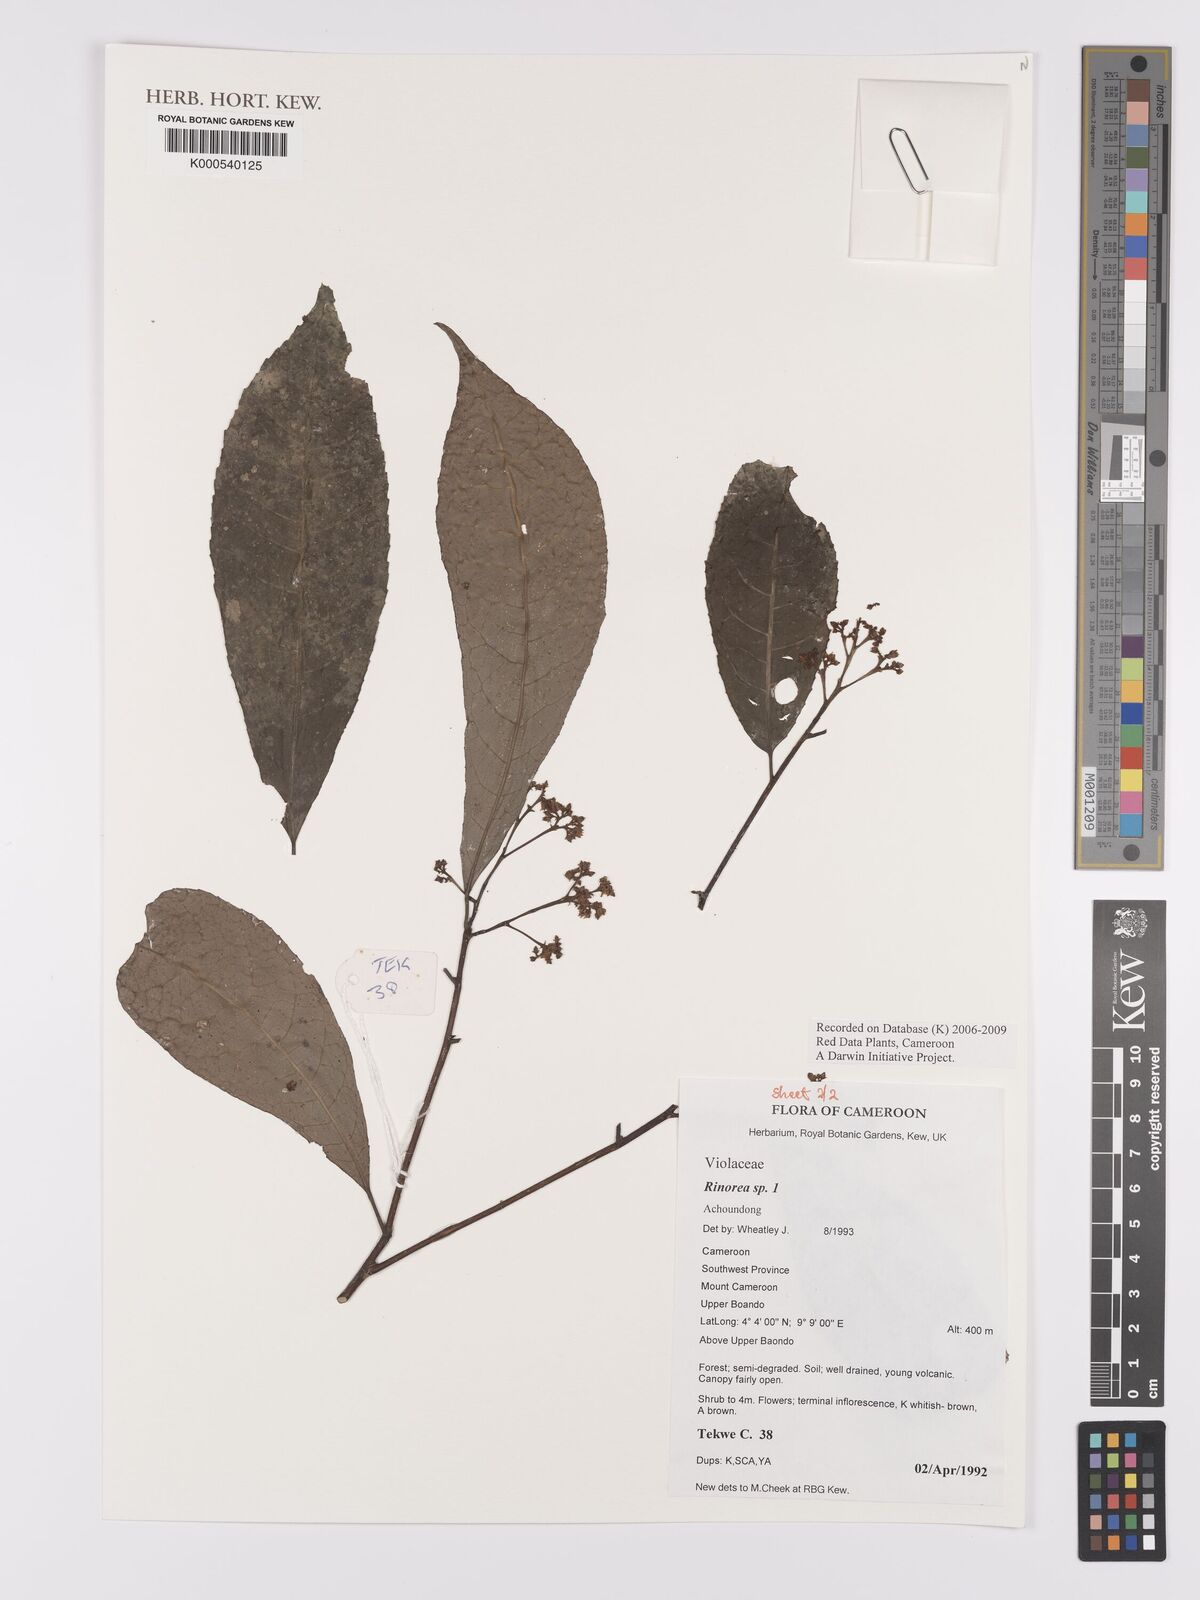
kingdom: Plantae
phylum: Tracheophyta
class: Magnoliopsida
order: Malpighiales
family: Violaceae
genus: Rinorea
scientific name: Rinorea
